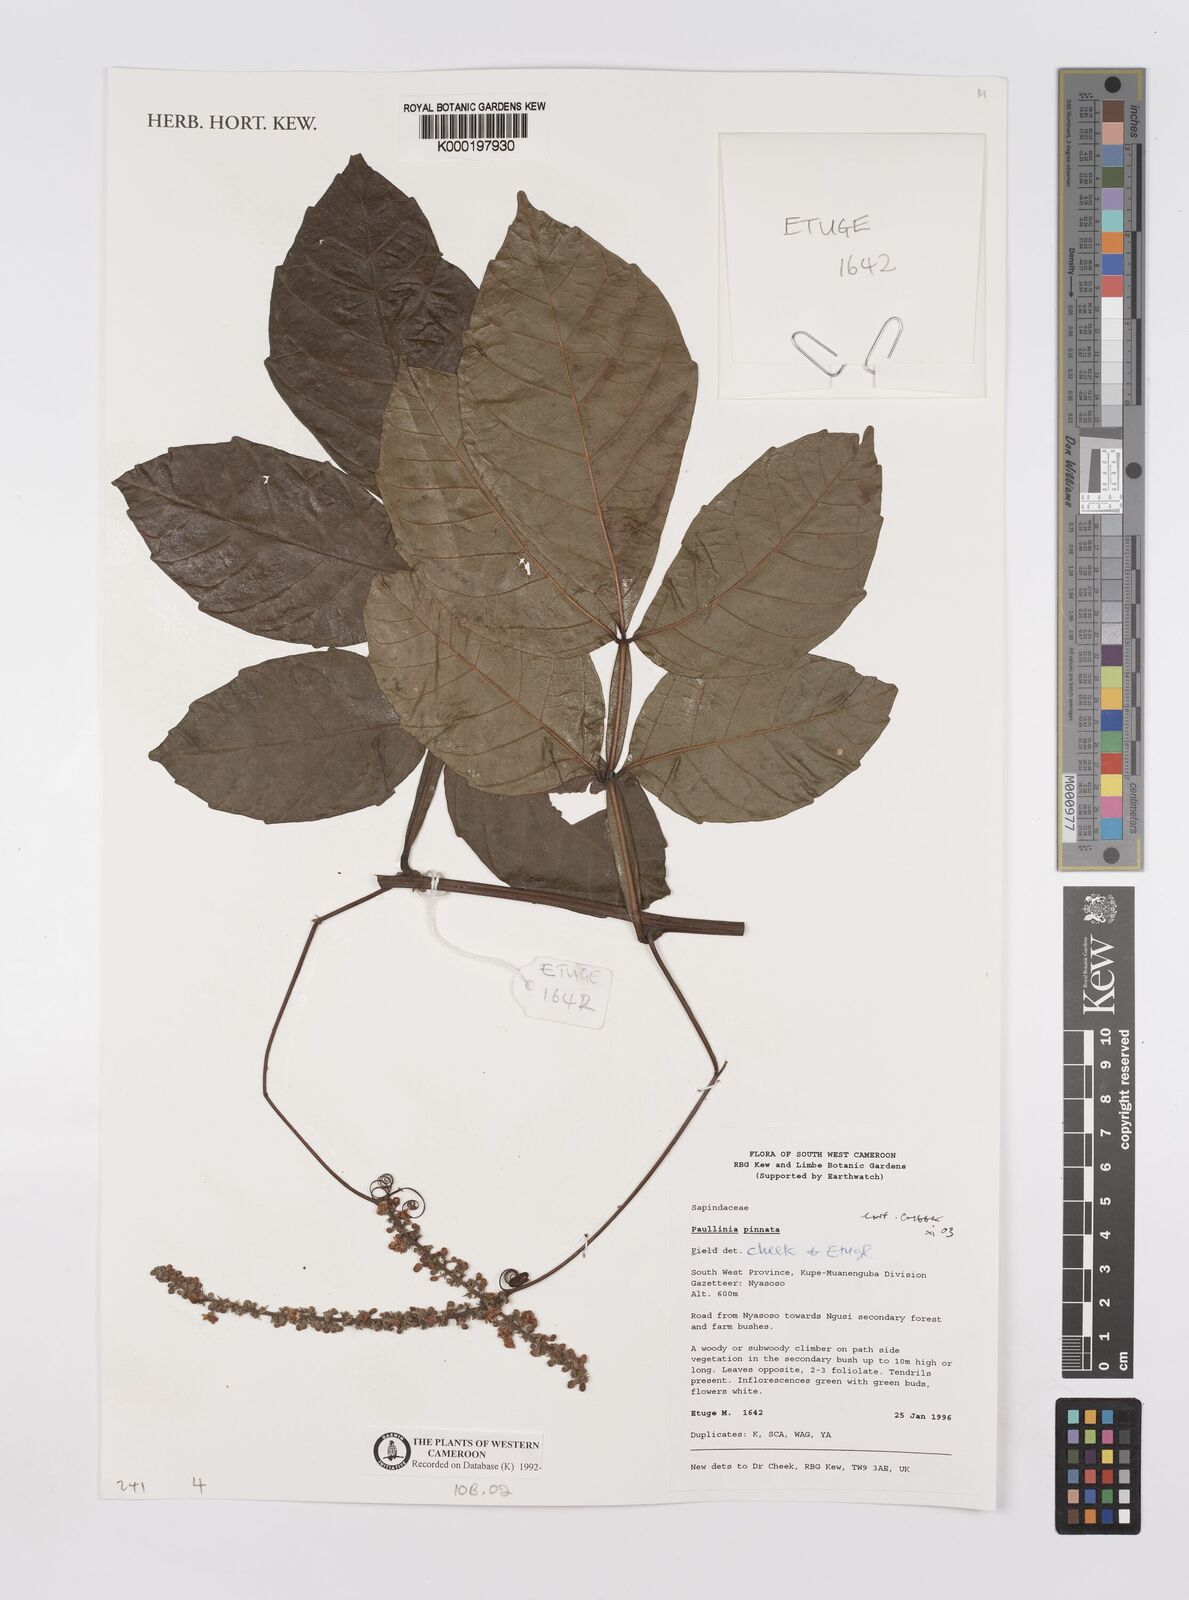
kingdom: Plantae
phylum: Tracheophyta
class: Magnoliopsida
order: Sapindales
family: Sapindaceae
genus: Paullinia
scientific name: Paullinia pinnata
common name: Barbasco
